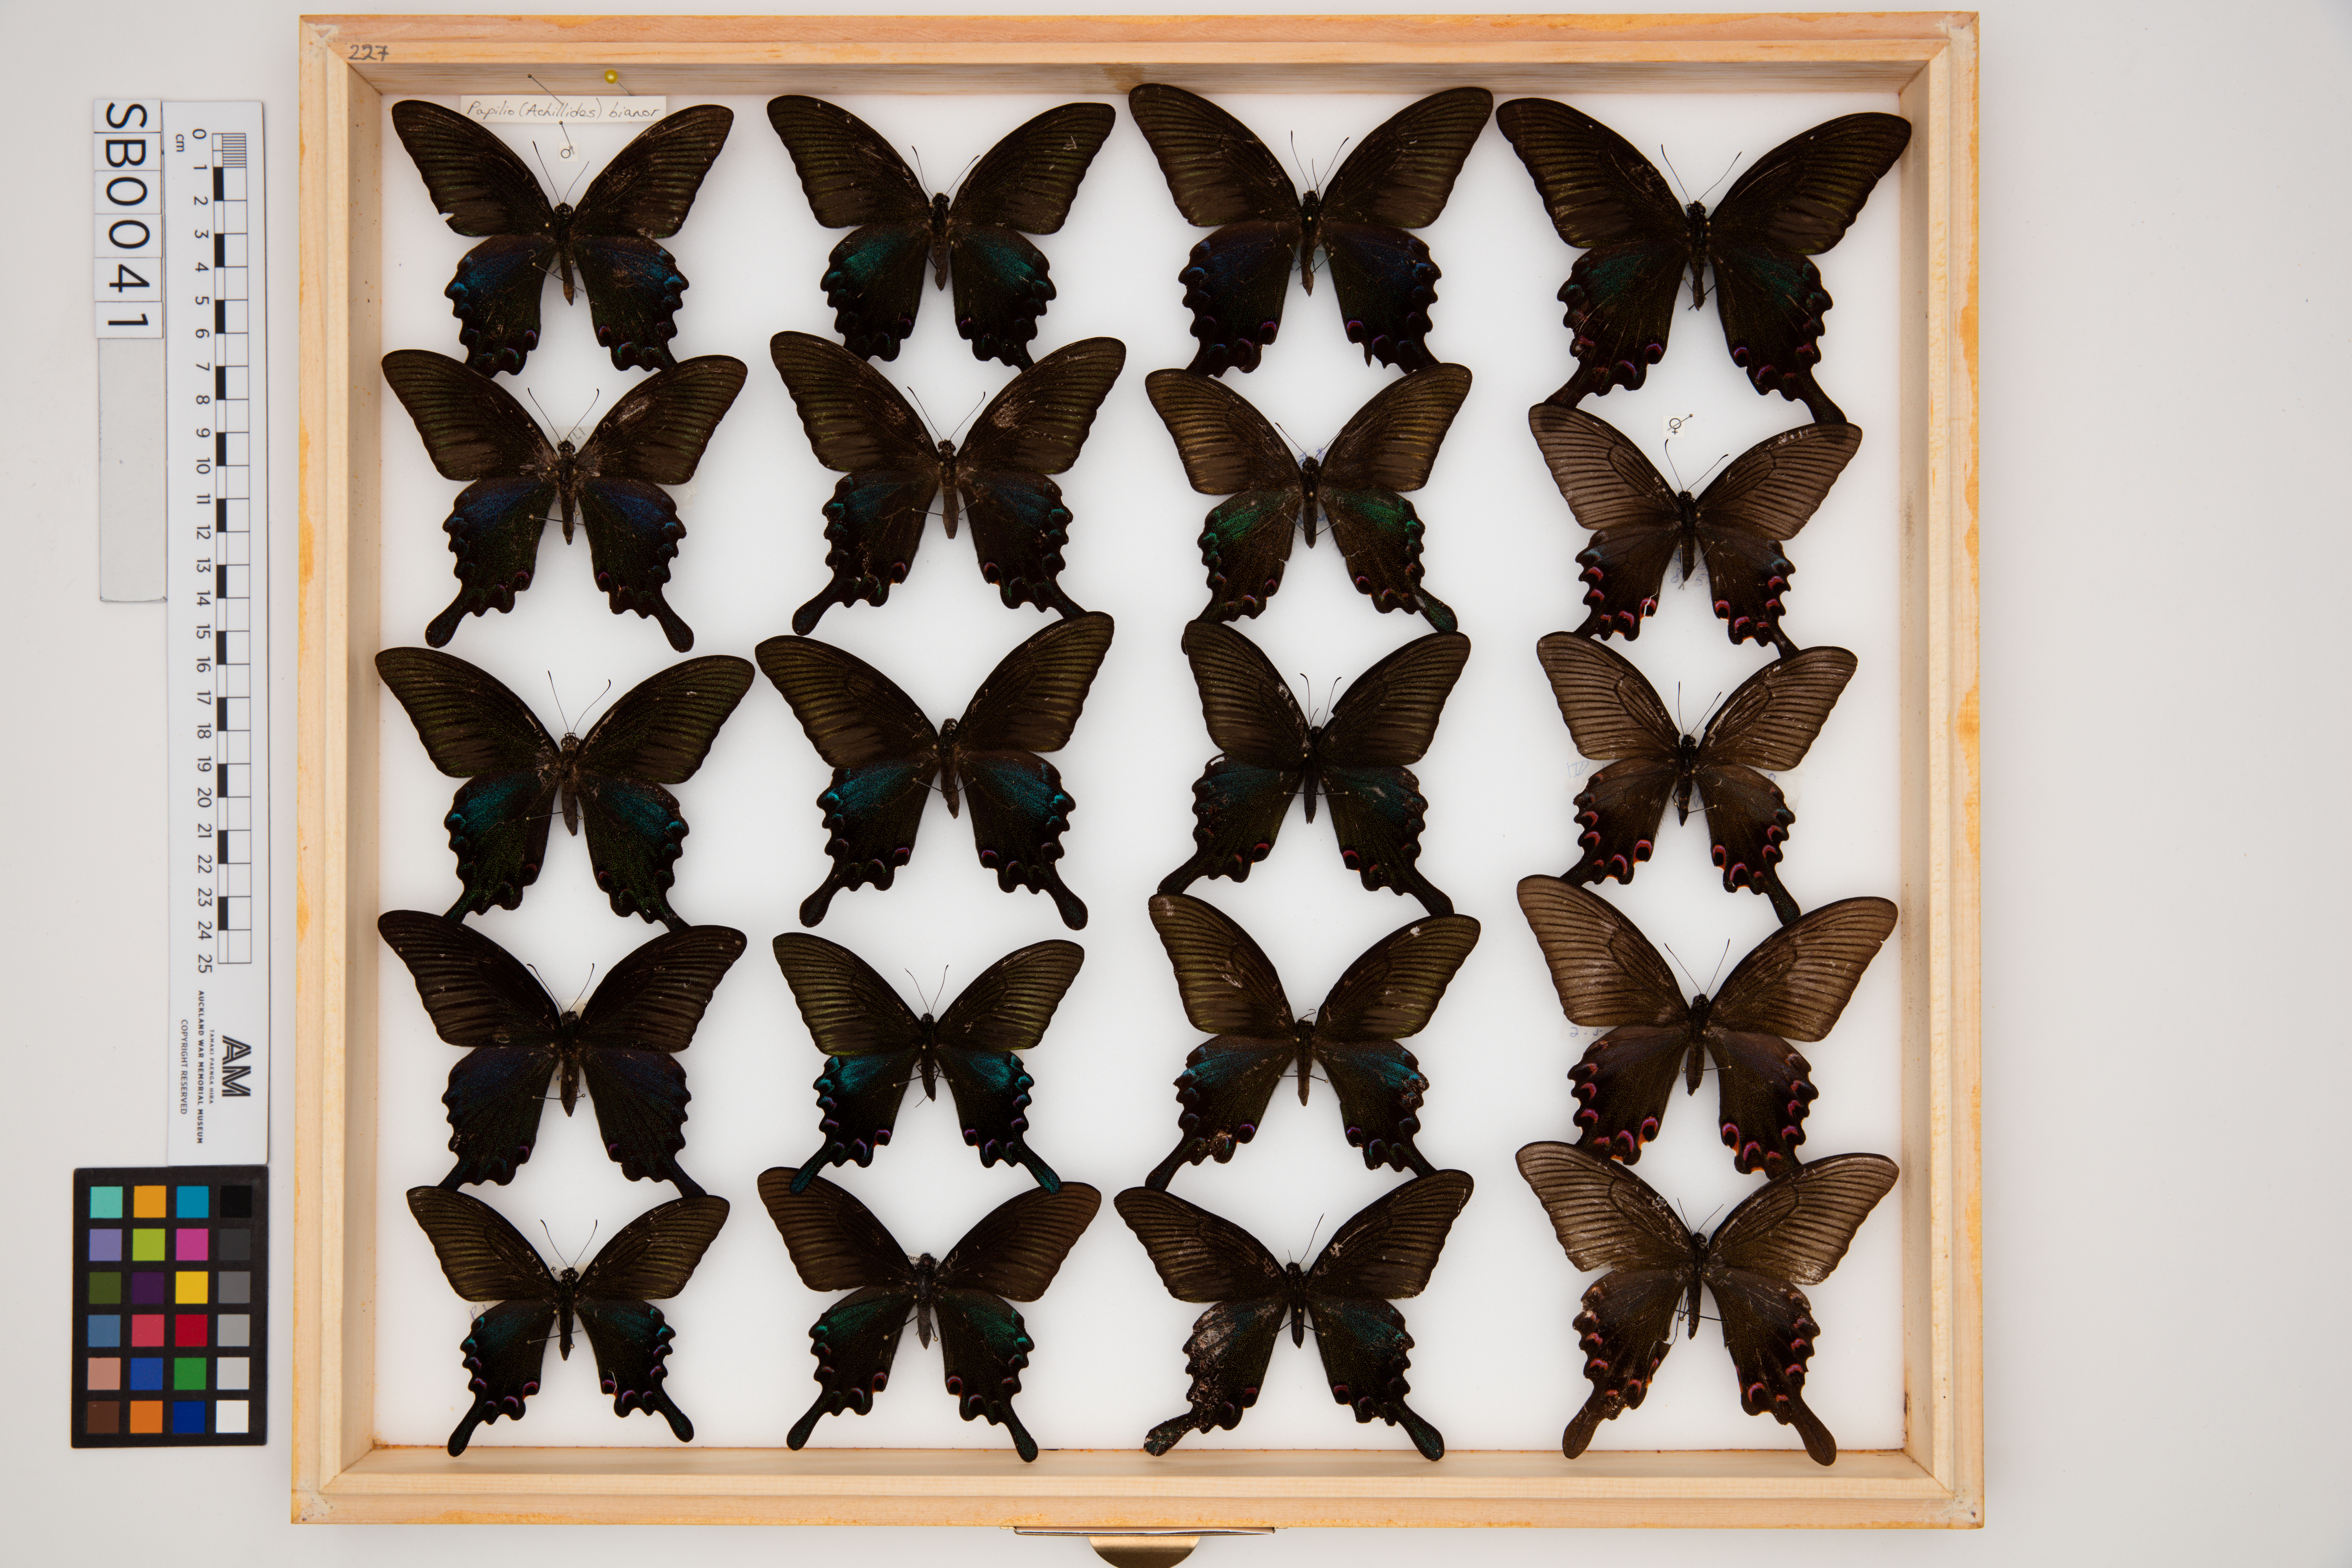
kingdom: Animalia
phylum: Arthropoda
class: Insecta
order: Lepidoptera
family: Papilionidae
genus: Papilio
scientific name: Papilio bianor
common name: Common peacock
